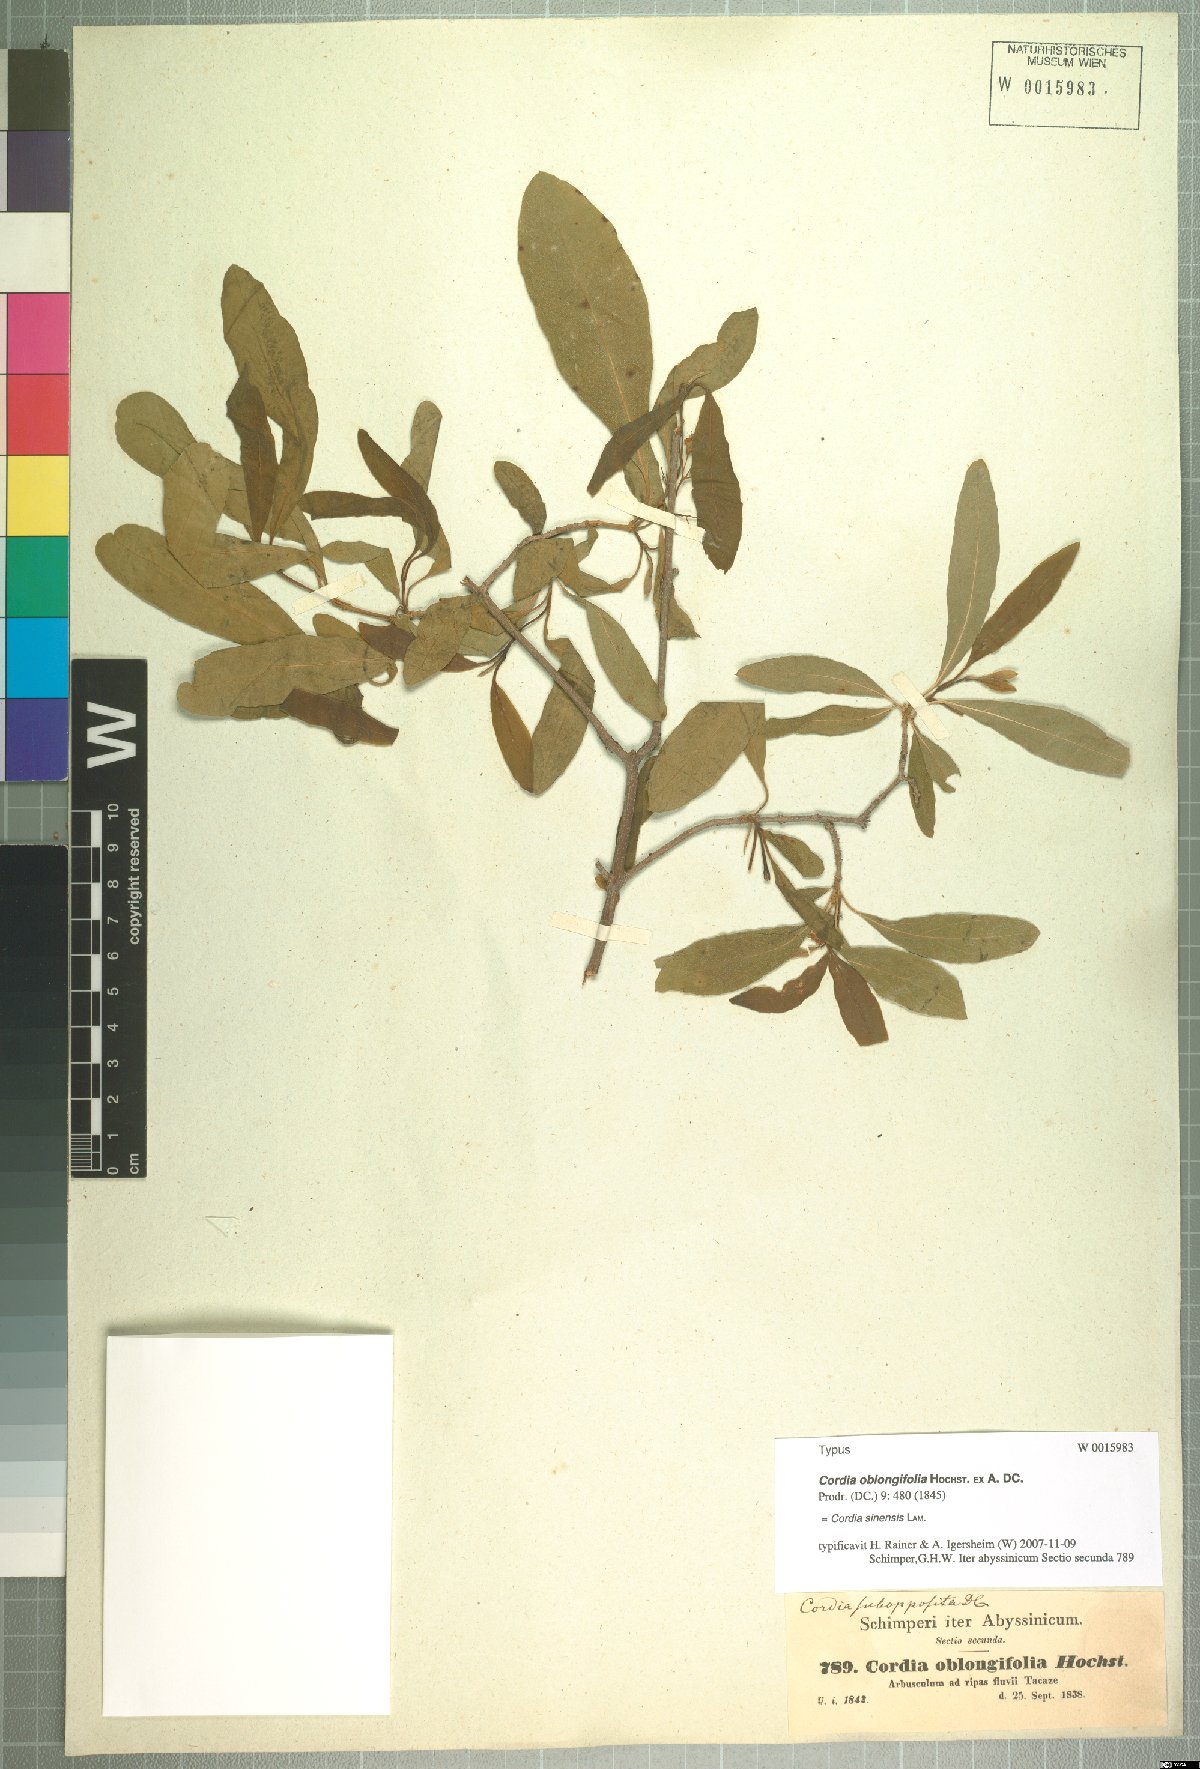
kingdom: Plantae
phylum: Tracheophyta
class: Magnoliopsida
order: Boraginales
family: Cordiaceae
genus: Cordia
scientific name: Cordia sinensis
